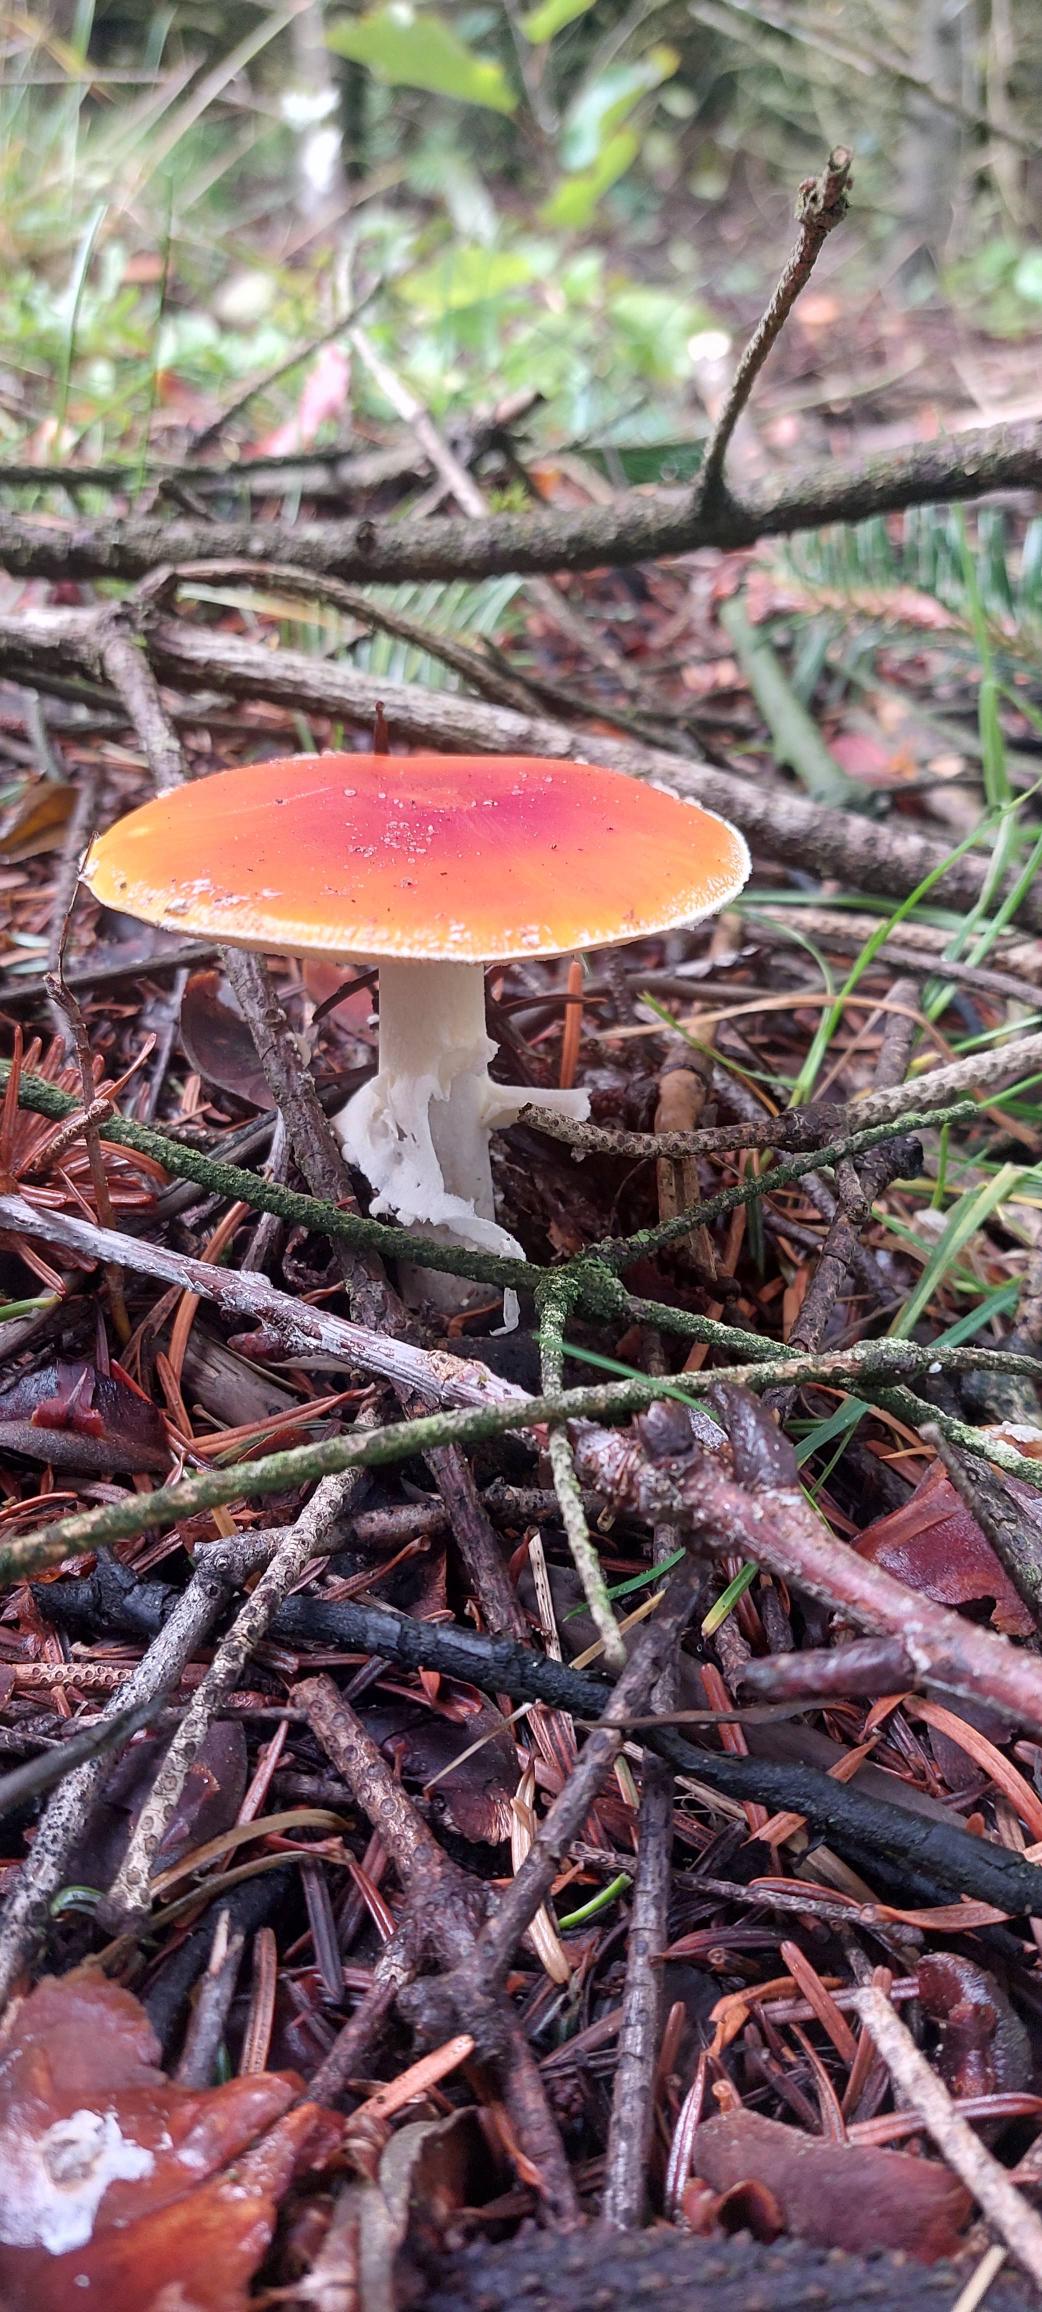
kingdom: Fungi
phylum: Basidiomycota
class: Agaricomycetes
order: Agaricales
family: Amanitaceae
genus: Amanita
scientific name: Amanita muscaria
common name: Rød fluesvamp
